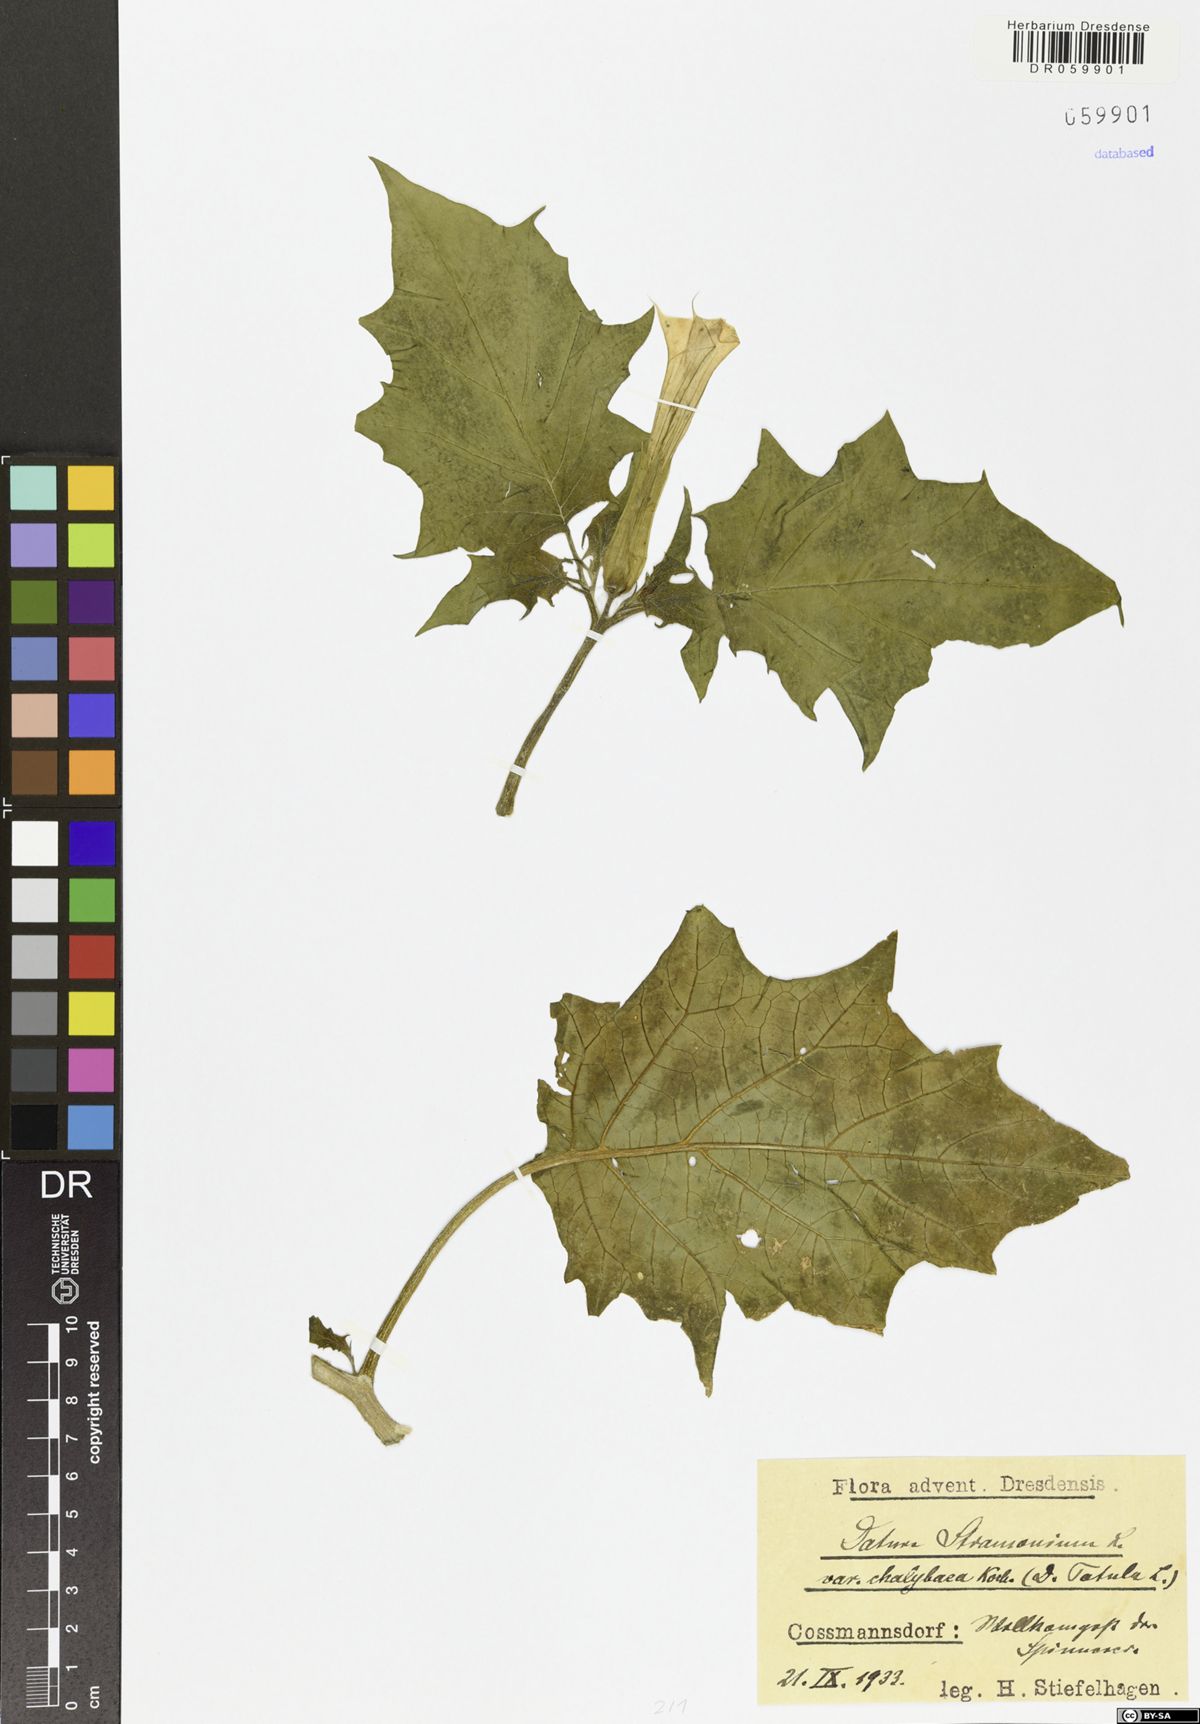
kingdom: Plantae
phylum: Tracheophyta
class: Magnoliopsida
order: Solanales
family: Solanaceae
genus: Datura
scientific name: Datura stramonium
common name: Thorn-apple
